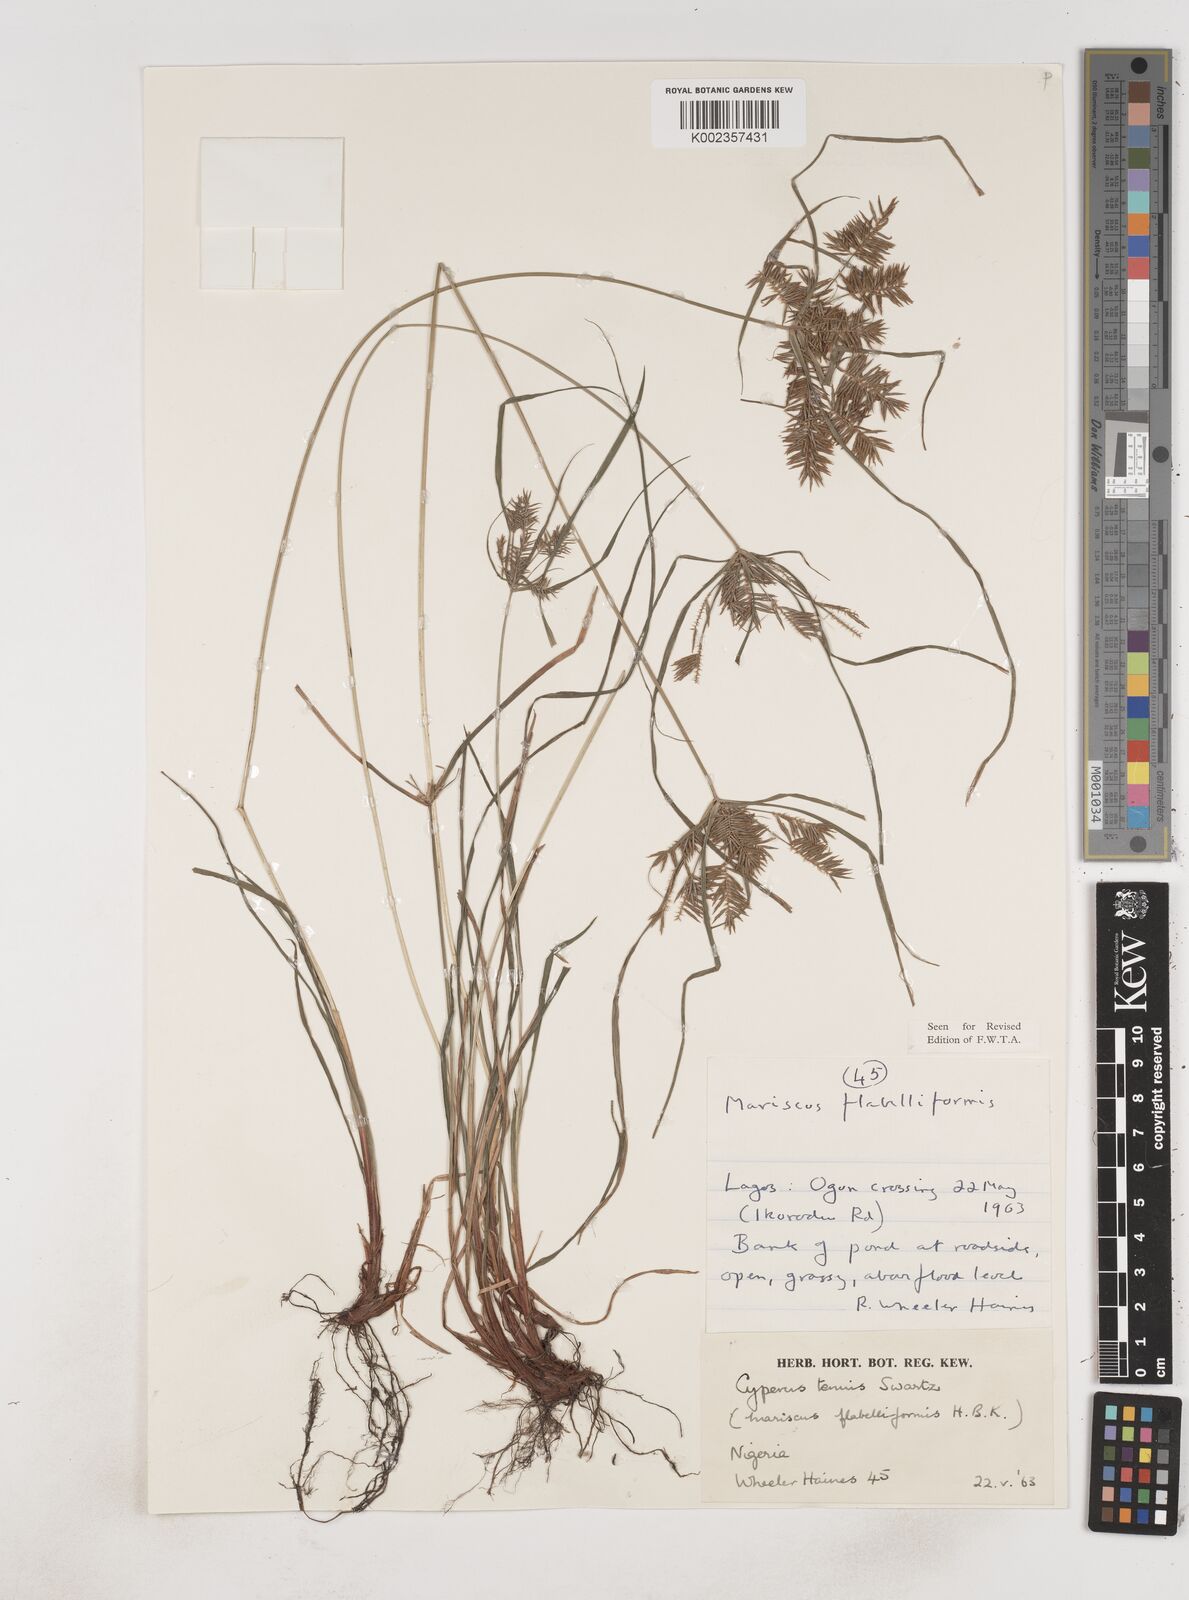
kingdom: Plantae
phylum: Tracheophyta
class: Liliopsida
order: Poales
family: Cyperaceae
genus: Cyperus
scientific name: Cyperus tenuis
